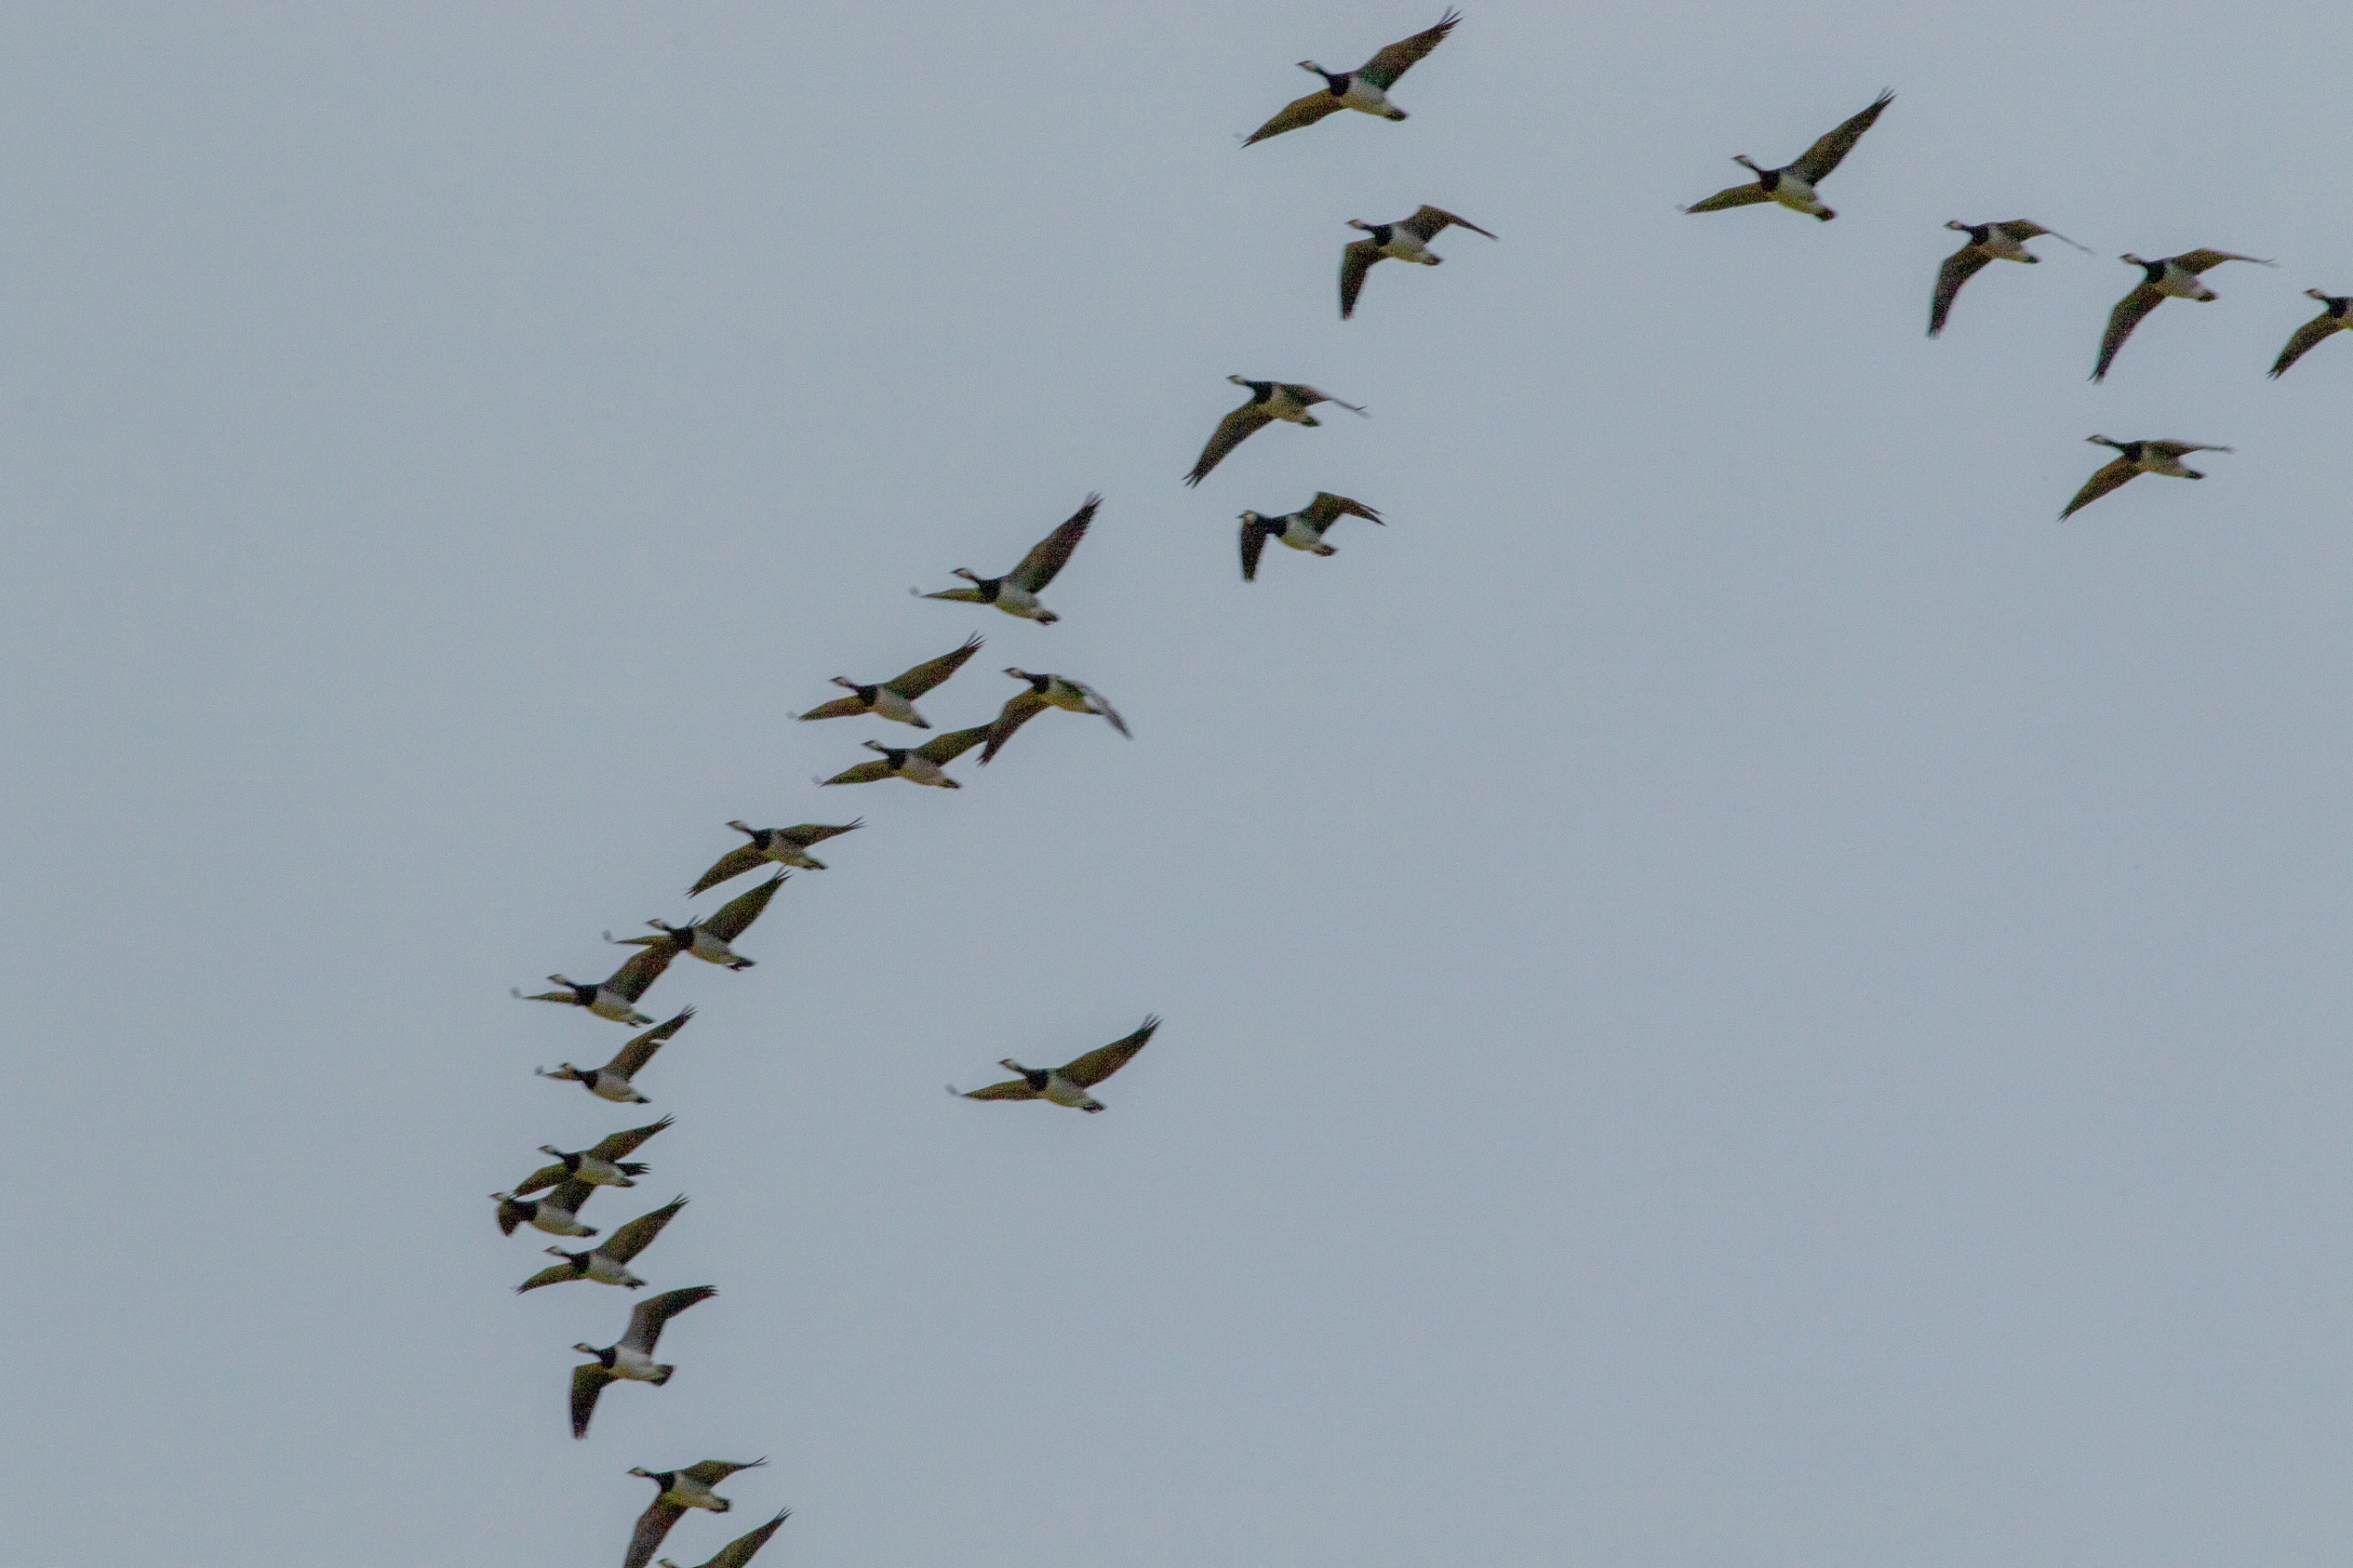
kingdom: Animalia
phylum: Chordata
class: Aves
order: Anseriformes
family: Anatidae
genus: Branta
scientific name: Branta leucopsis
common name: Bramgås
